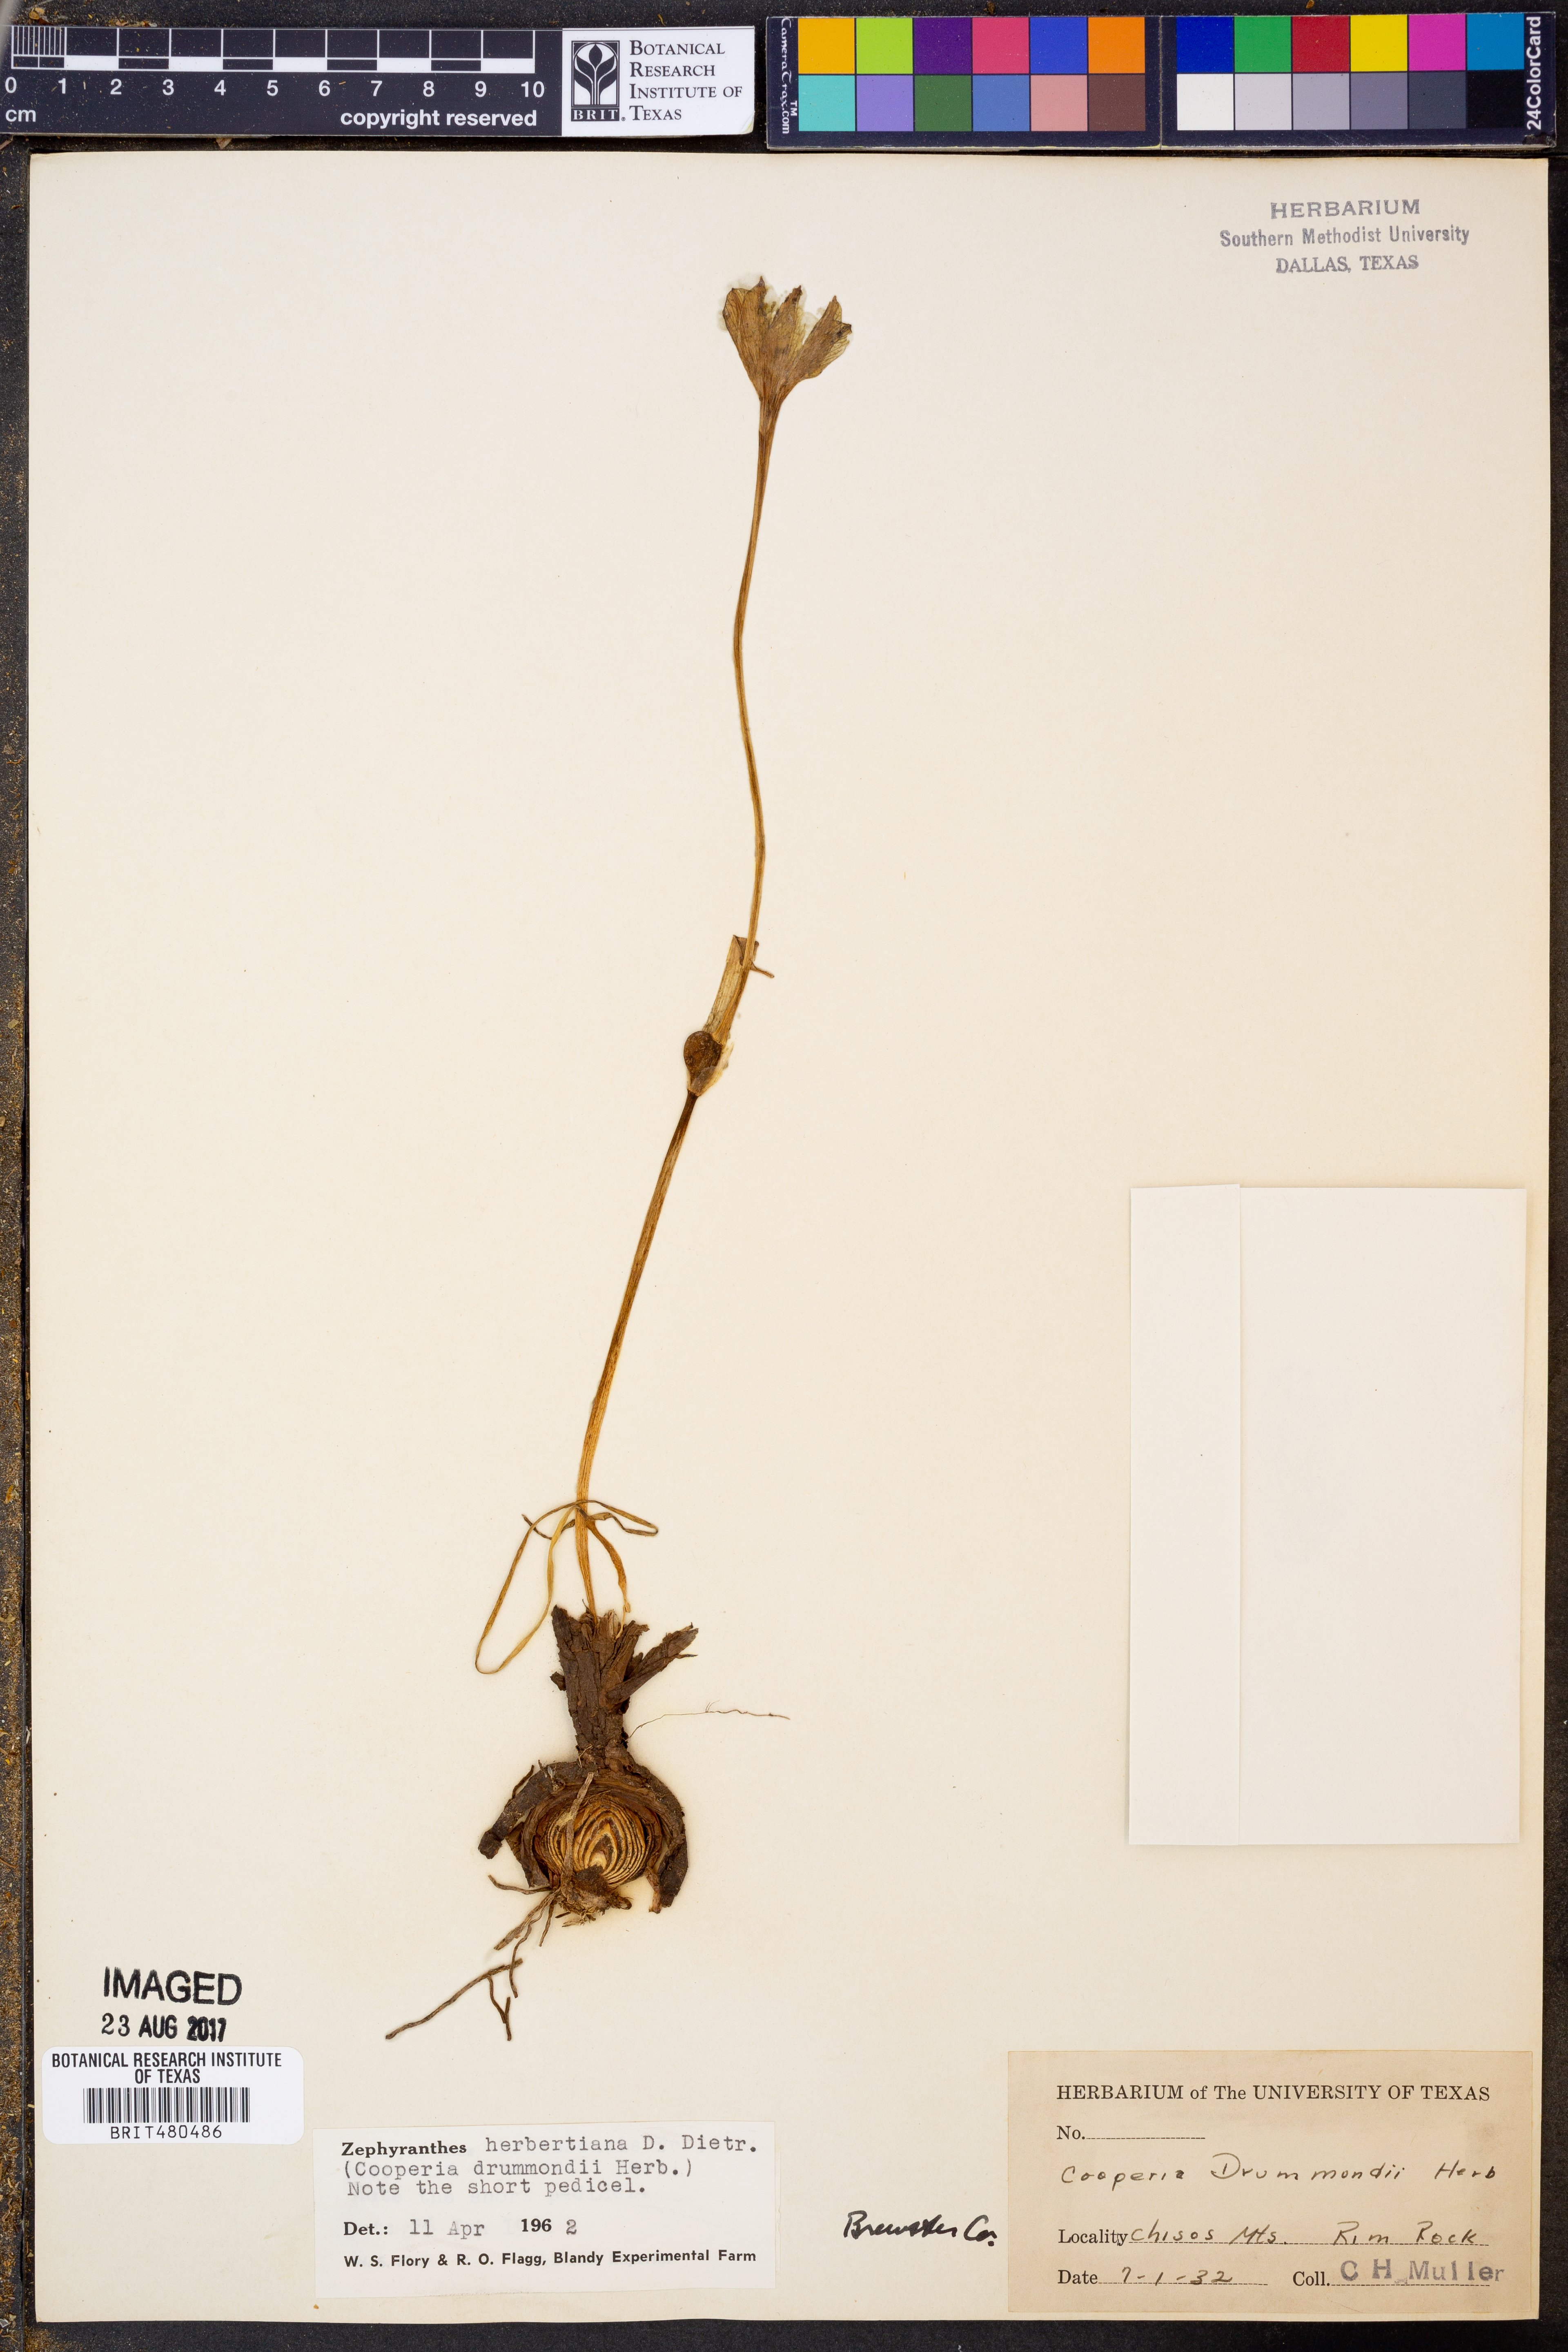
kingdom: Plantae
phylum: Tracheophyta
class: Liliopsida
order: Asparagales
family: Amaryllidaceae
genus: Zephyranthes
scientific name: Zephyranthes chlorosolen
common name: Evening rain-lily
